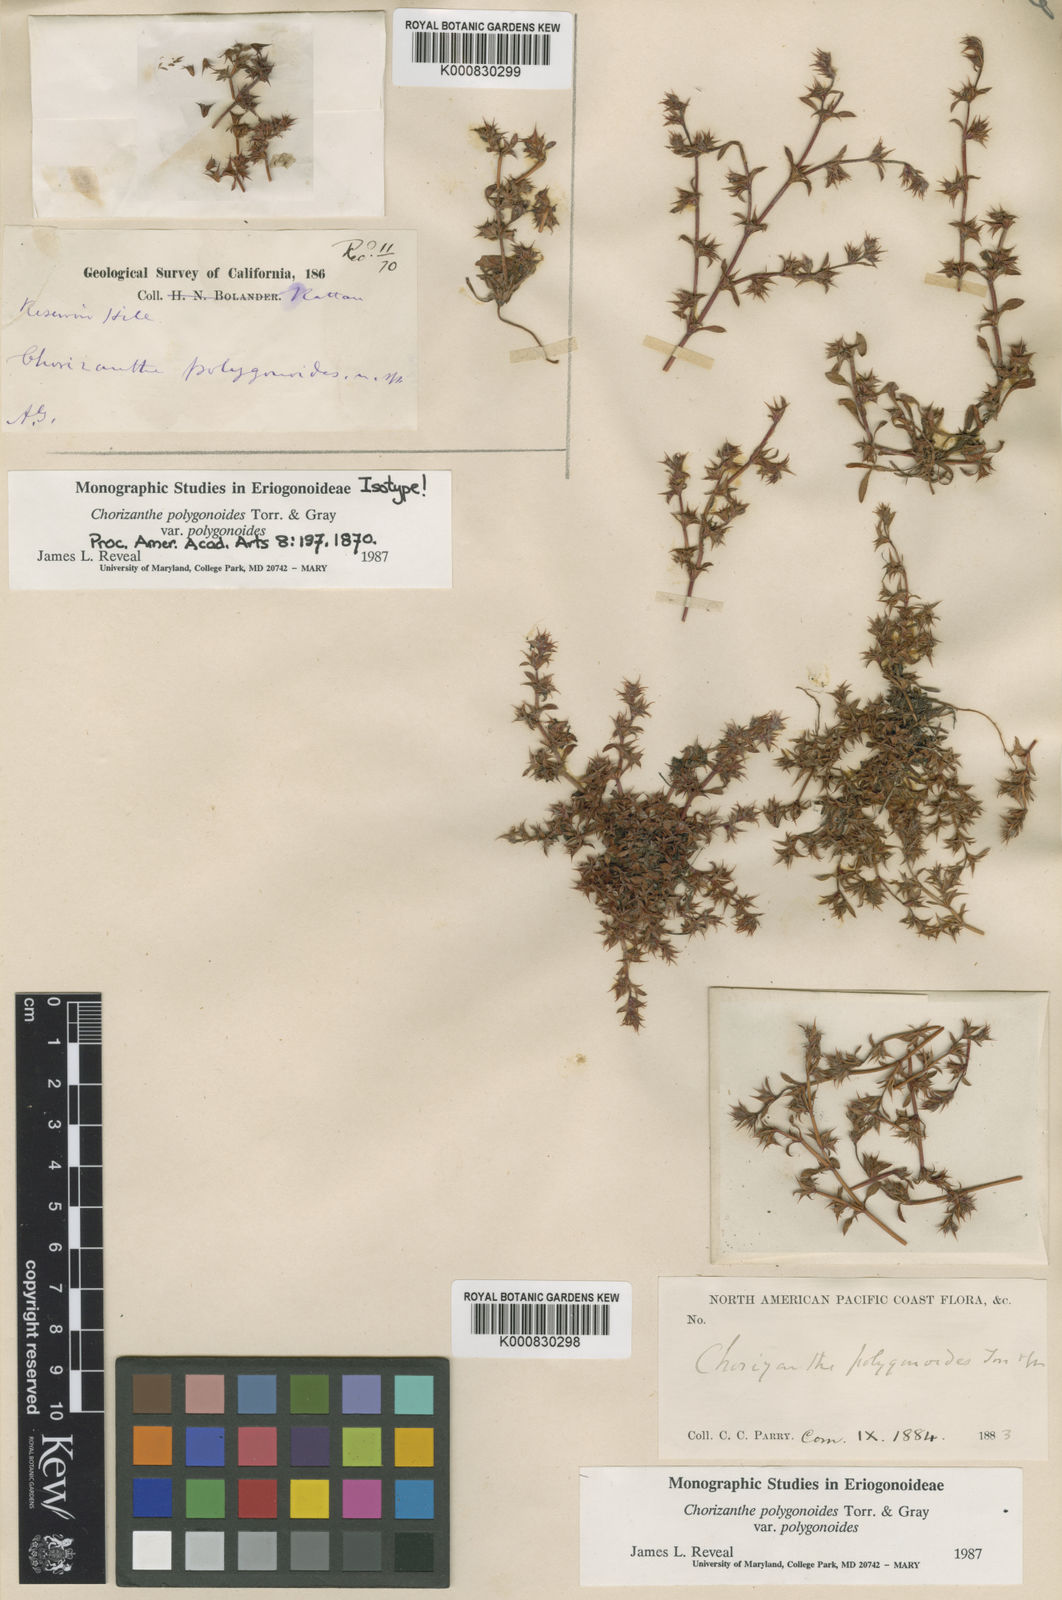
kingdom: Plantae
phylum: Tracheophyta
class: Magnoliopsida
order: Caryophyllales
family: Polygonaceae
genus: Chorizanthe
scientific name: Chorizanthe polygonoides
